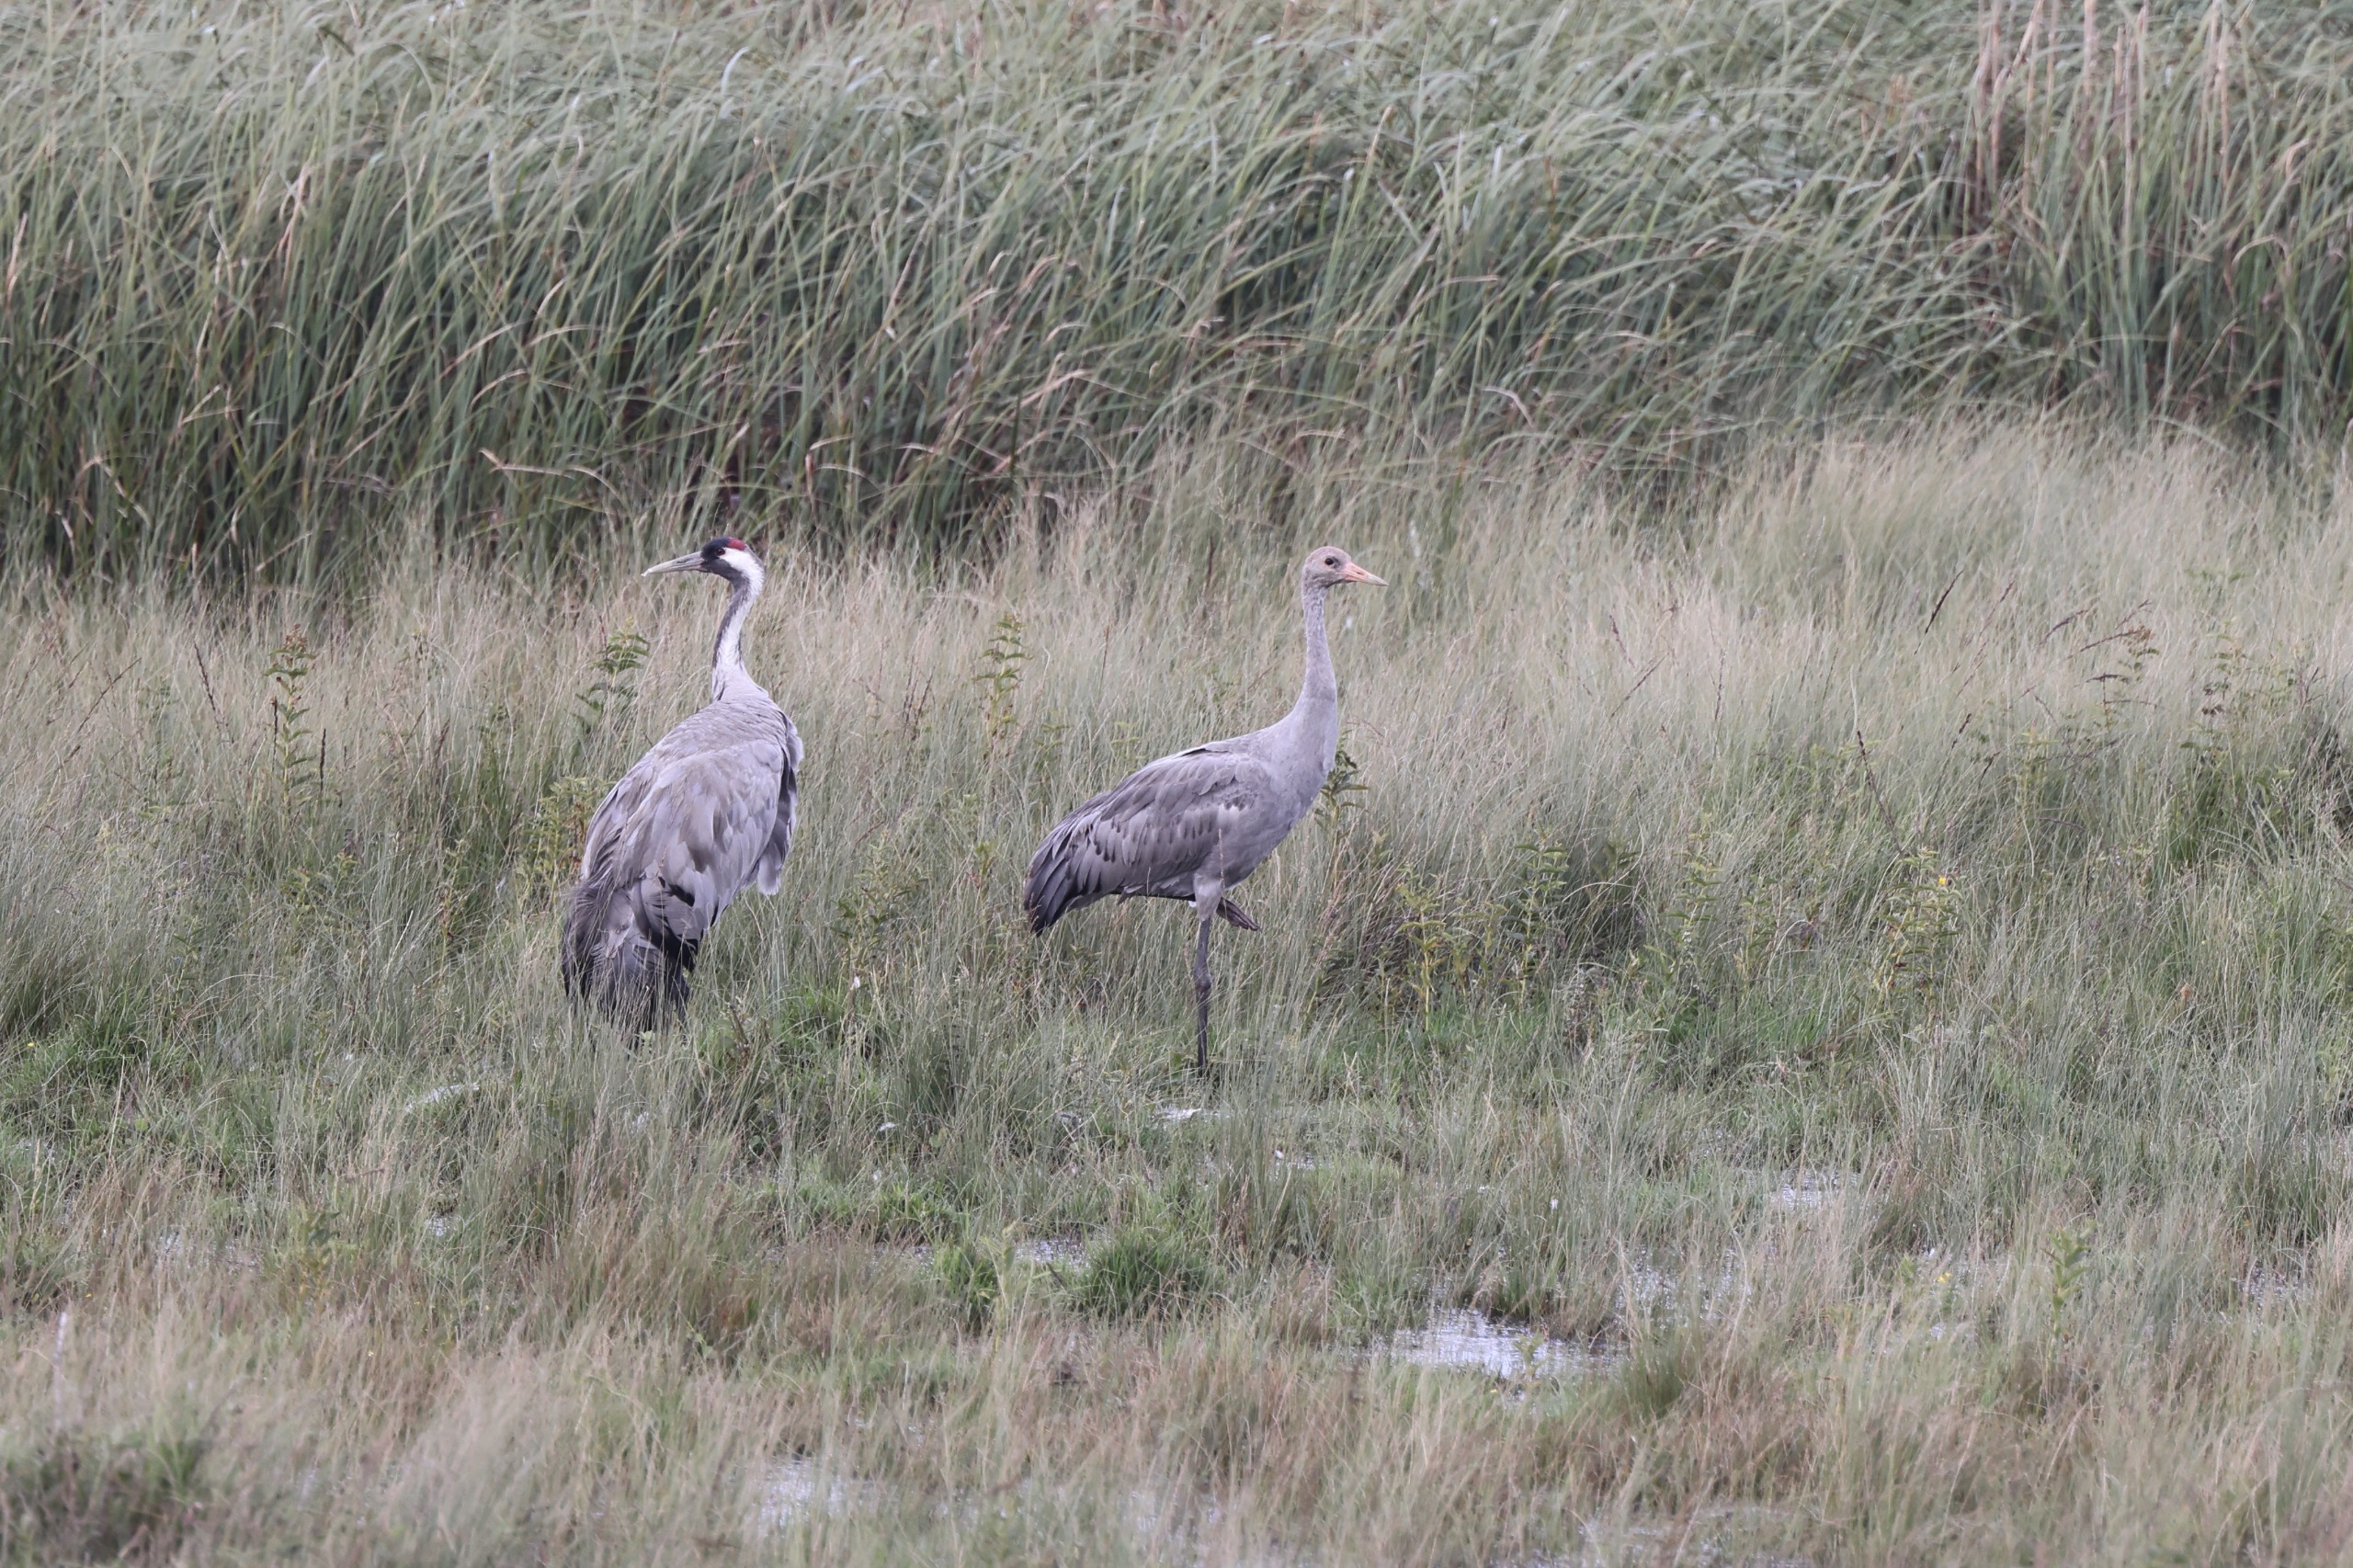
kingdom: Animalia
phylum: Chordata
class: Aves
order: Gruiformes
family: Gruidae
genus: Grus
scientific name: Grus grus
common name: Trane
